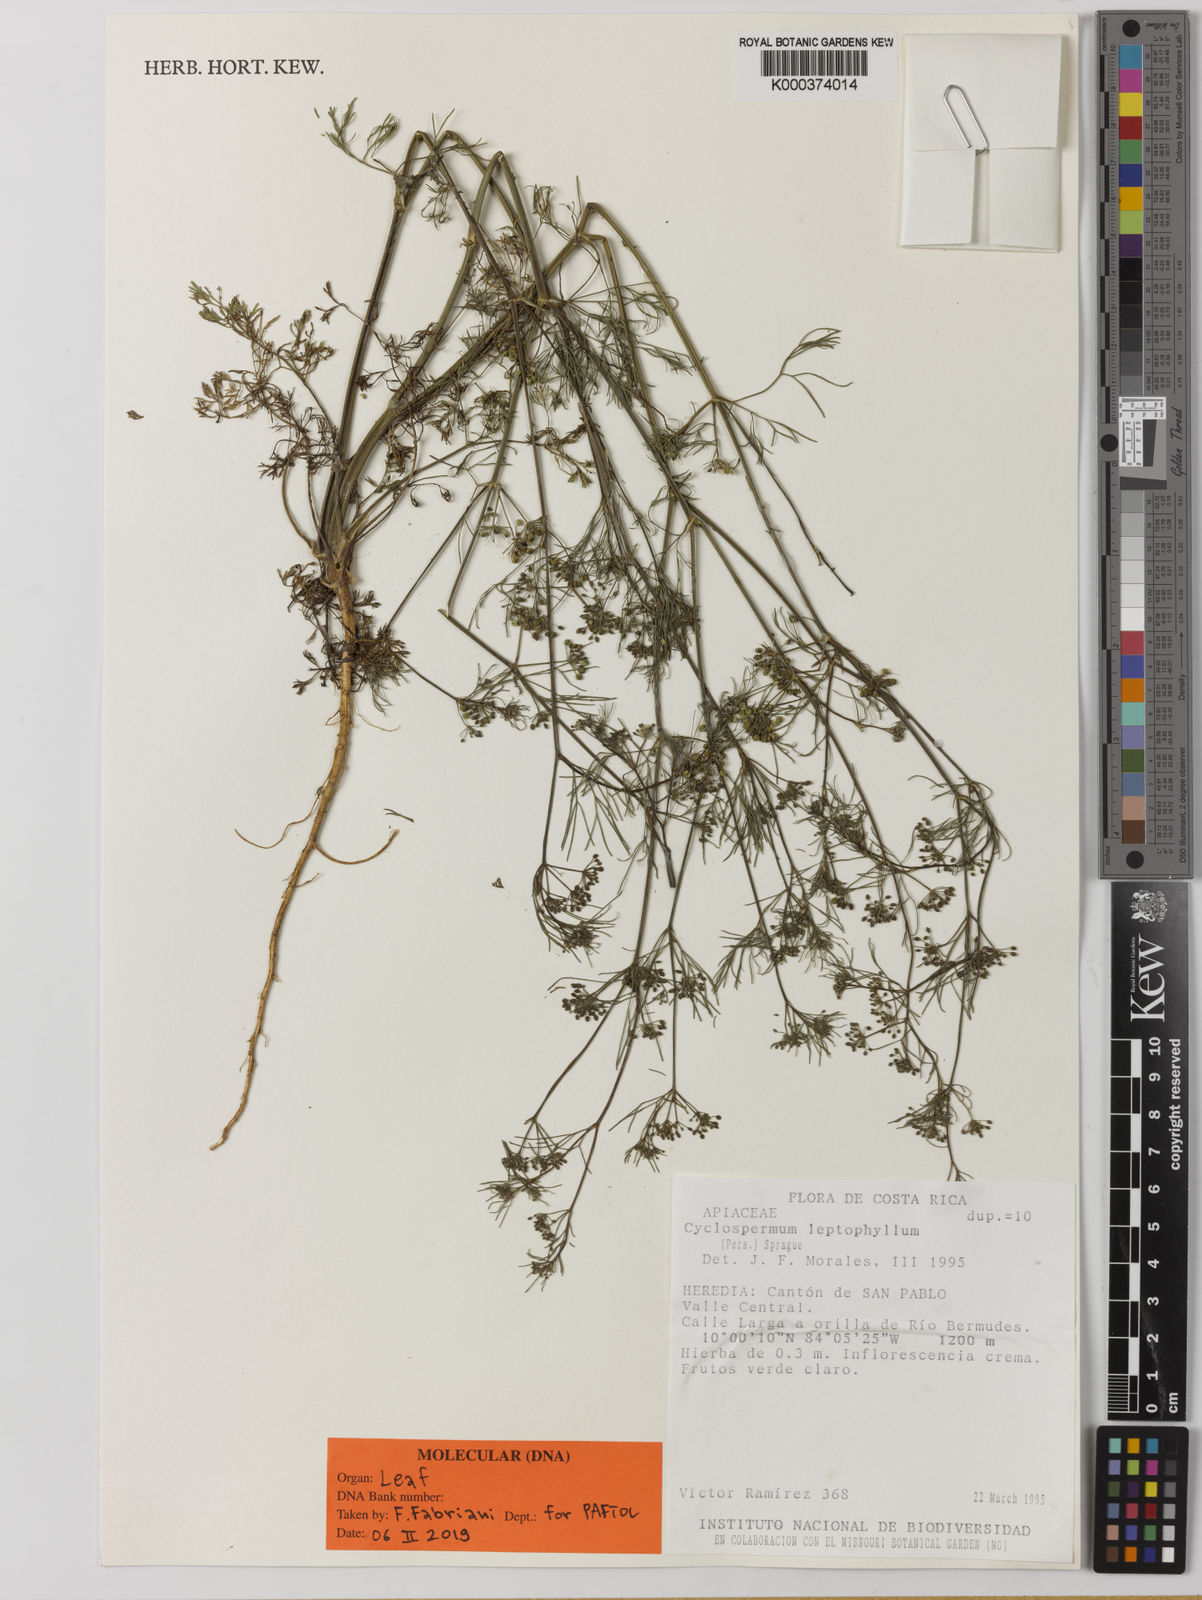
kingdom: Plantae
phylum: Tracheophyta
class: Magnoliopsida
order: Apiales
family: Apiaceae
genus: Cyclospermum
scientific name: Cyclospermum
